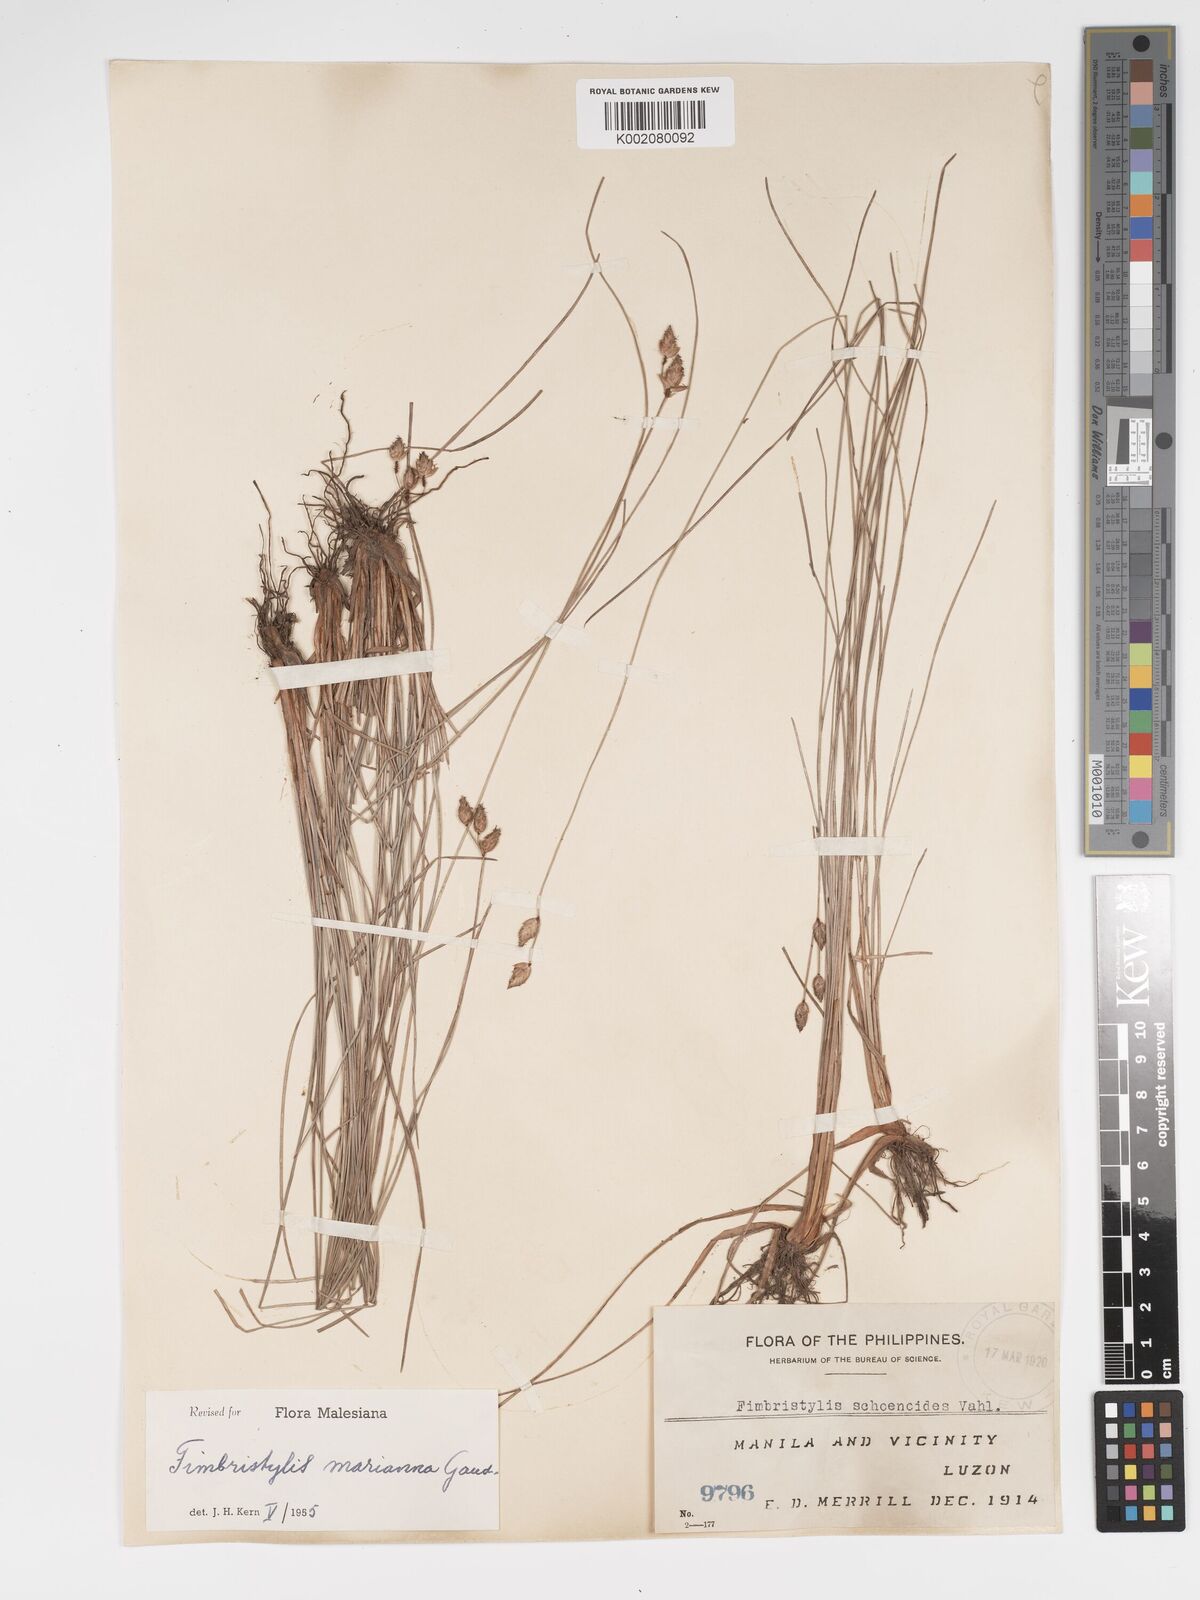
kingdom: Plantae
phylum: Tracheophyta
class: Liliopsida
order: Poales
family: Cyperaceae
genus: Fimbristylis
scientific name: Fimbristylis tristachya
